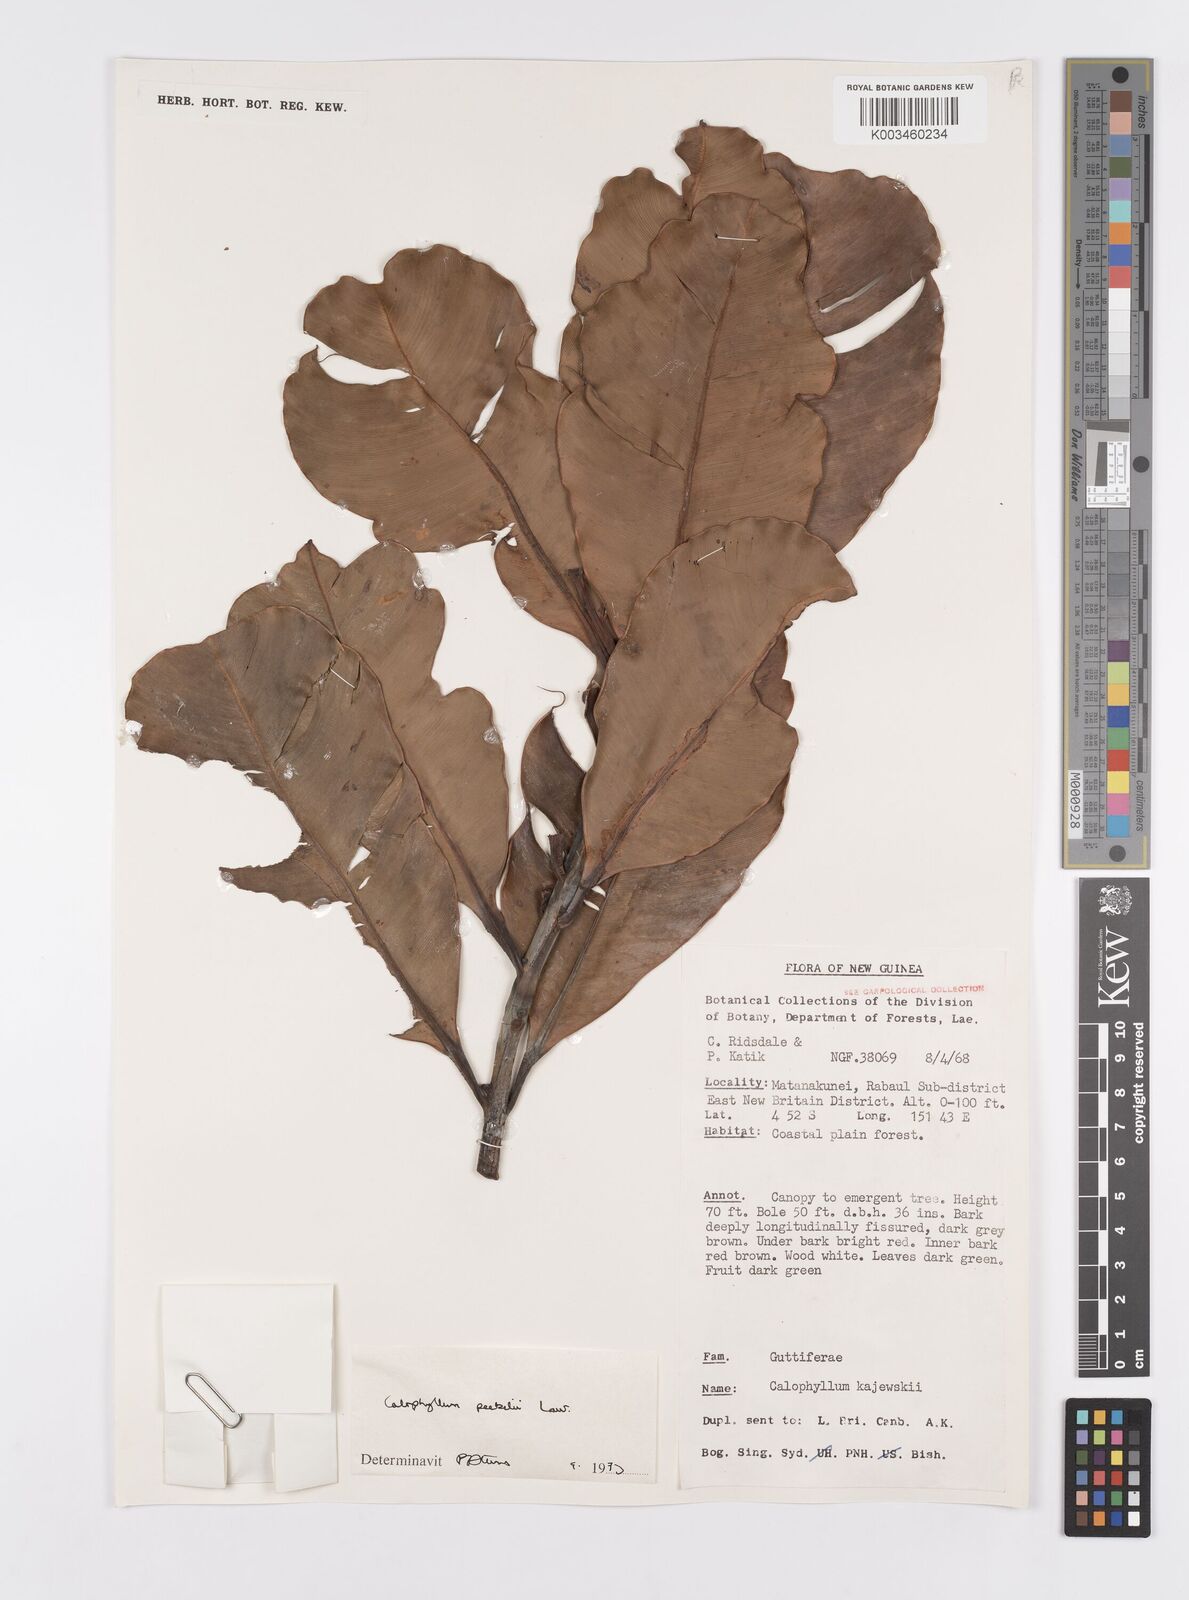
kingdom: Plantae
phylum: Tracheophyta
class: Magnoliopsida
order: Malpighiales
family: Calophyllaceae
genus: Calophyllum
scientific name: Calophyllum peekelii
